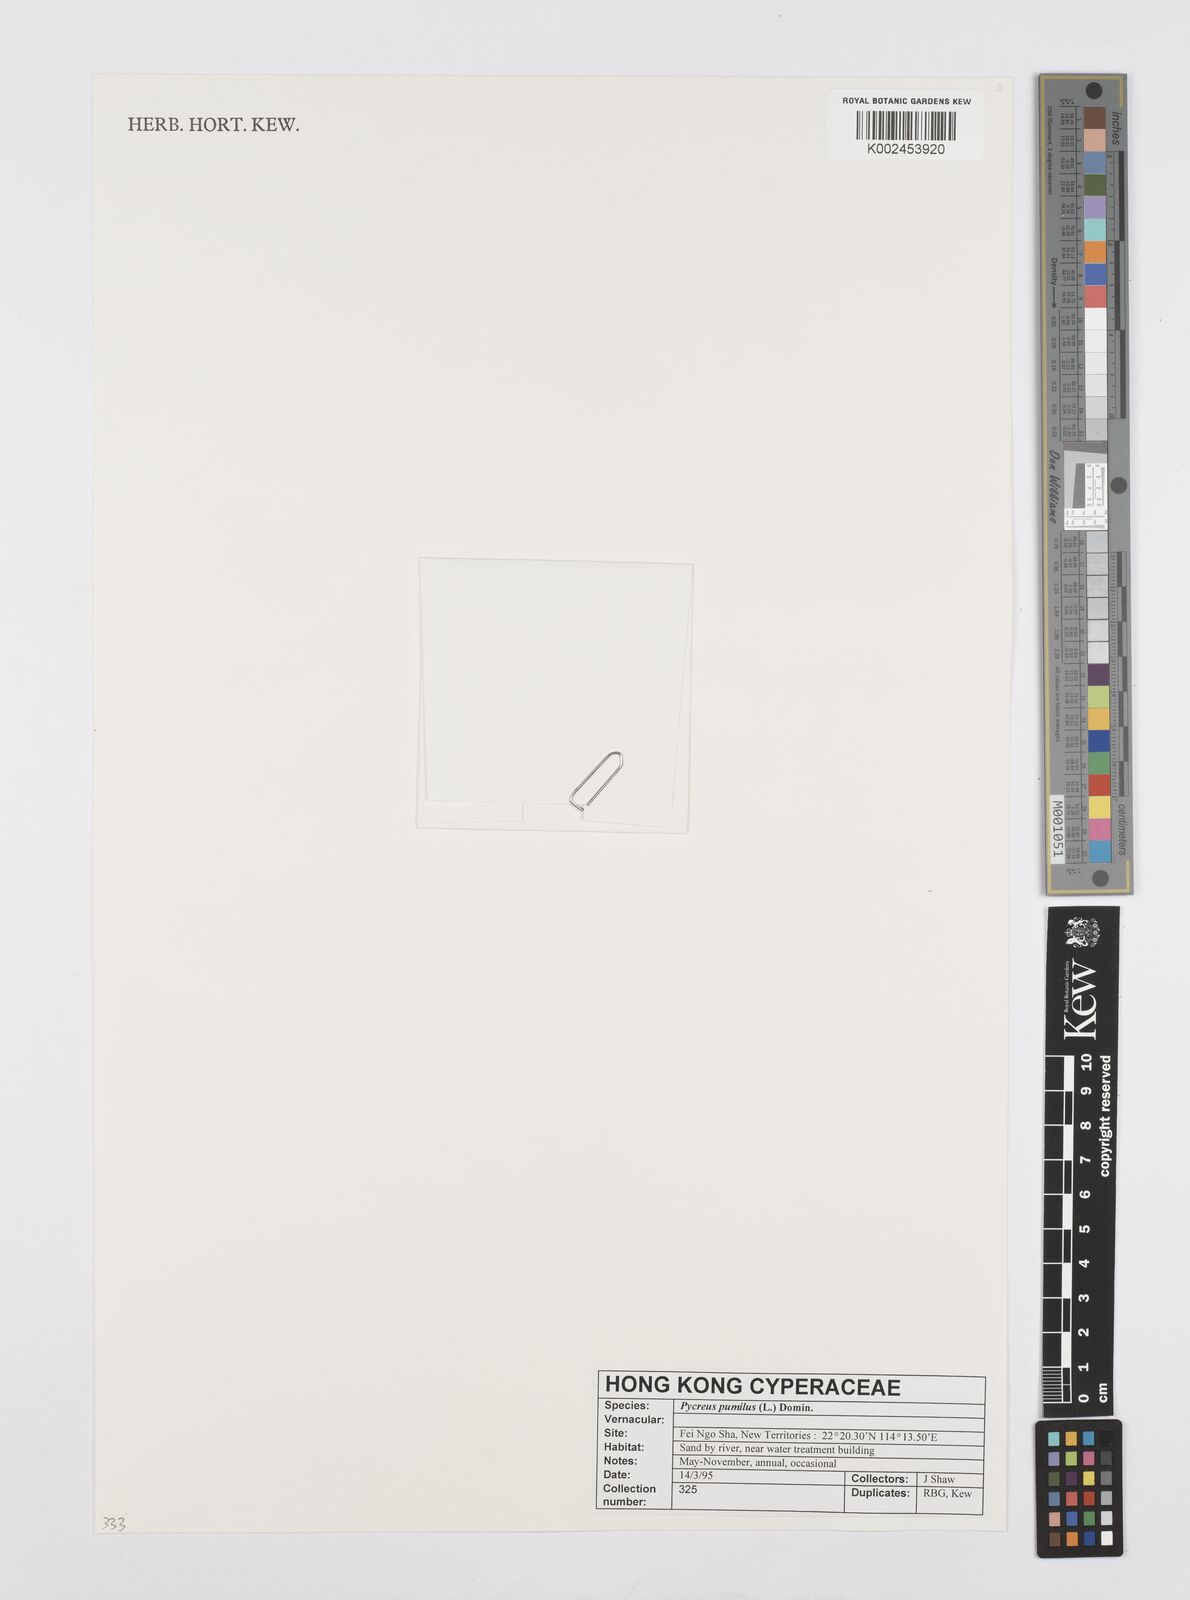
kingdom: Plantae
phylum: Tracheophyta
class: Liliopsida
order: Poales
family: Cyperaceae
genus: Cyperus
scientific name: Cyperus pumilus
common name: Low flatsedge
